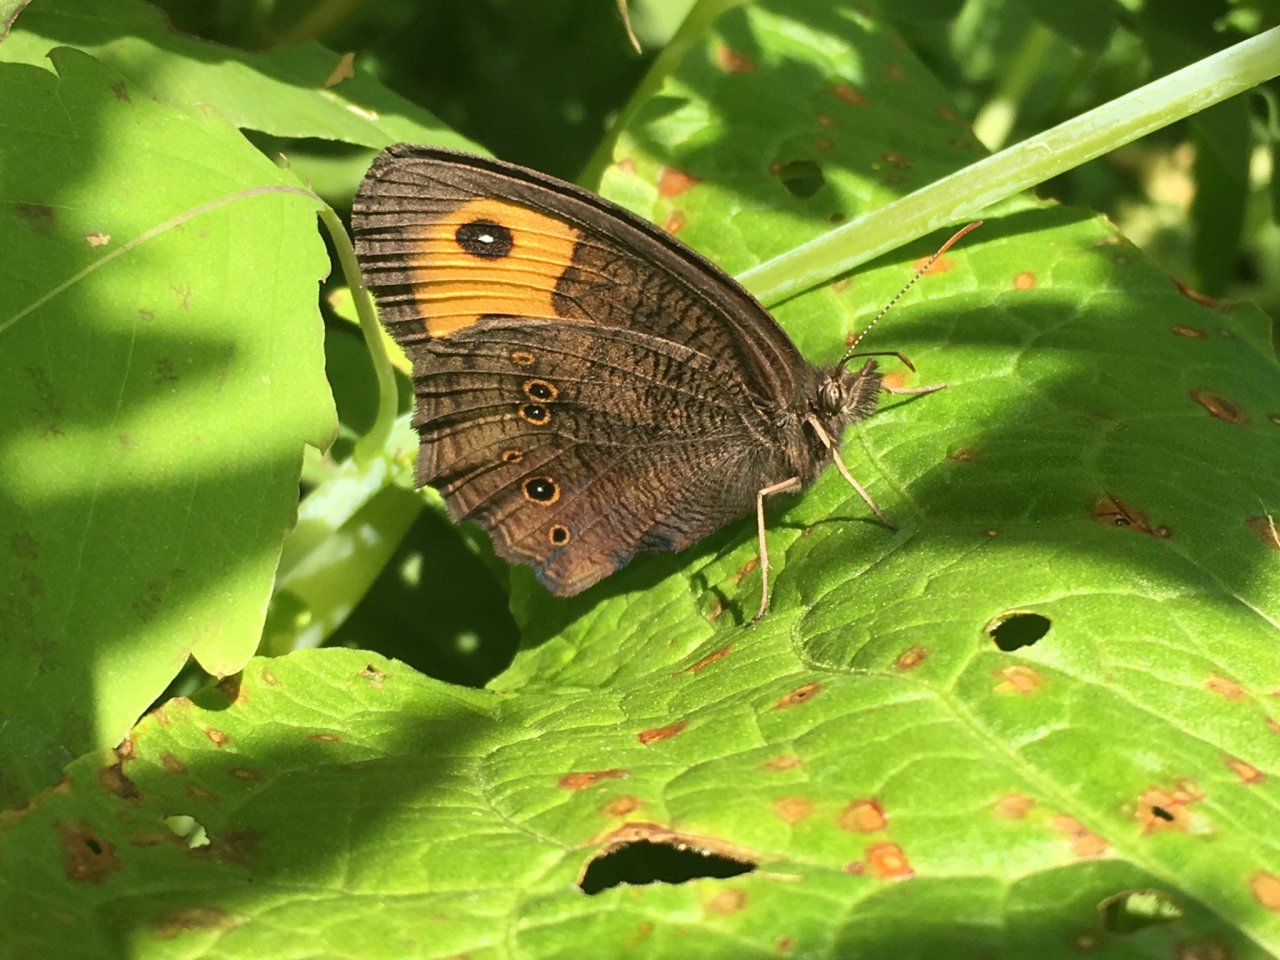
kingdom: Animalia
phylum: Arthropoda
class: Insecta
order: Lepidoptera
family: Nymphalidae
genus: Cercyonis
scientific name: Cercyonis pegala
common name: Common Wood-Nymph
